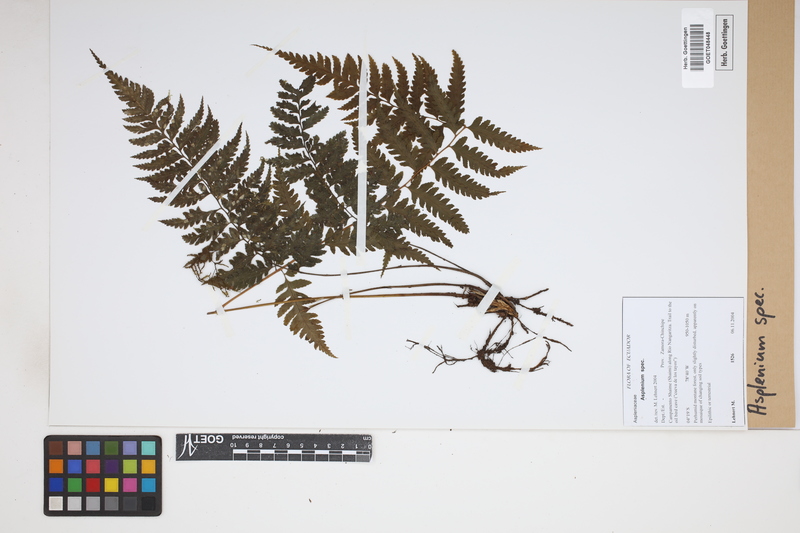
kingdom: Plantae
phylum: Tracheophyta
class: Polypodiopsida
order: Polypodiales
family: Aspleniaceae
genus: Asplenium
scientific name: Asplenium
